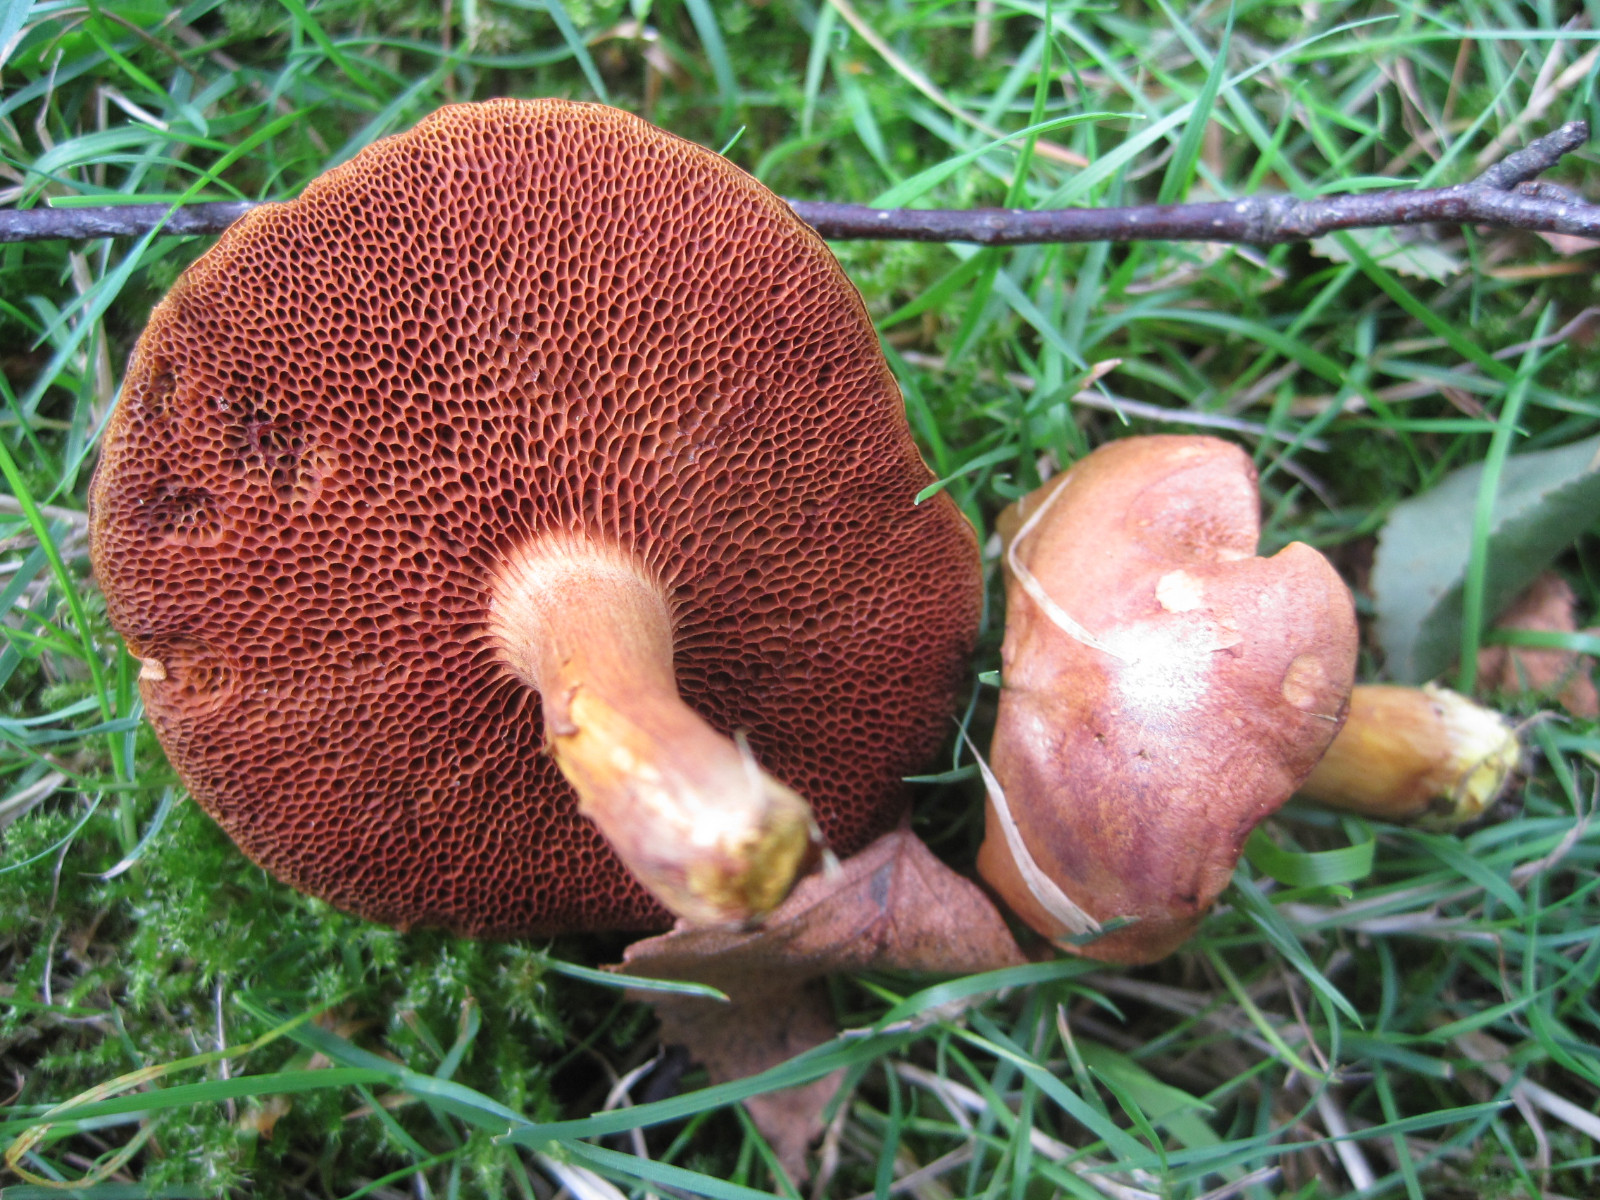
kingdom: Fungi
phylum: Basidiomycota
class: Agaricomycetes
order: Boletales
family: Boletaceae
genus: Chalciporus
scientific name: Chalciporus piperatus
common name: peberrørhat
